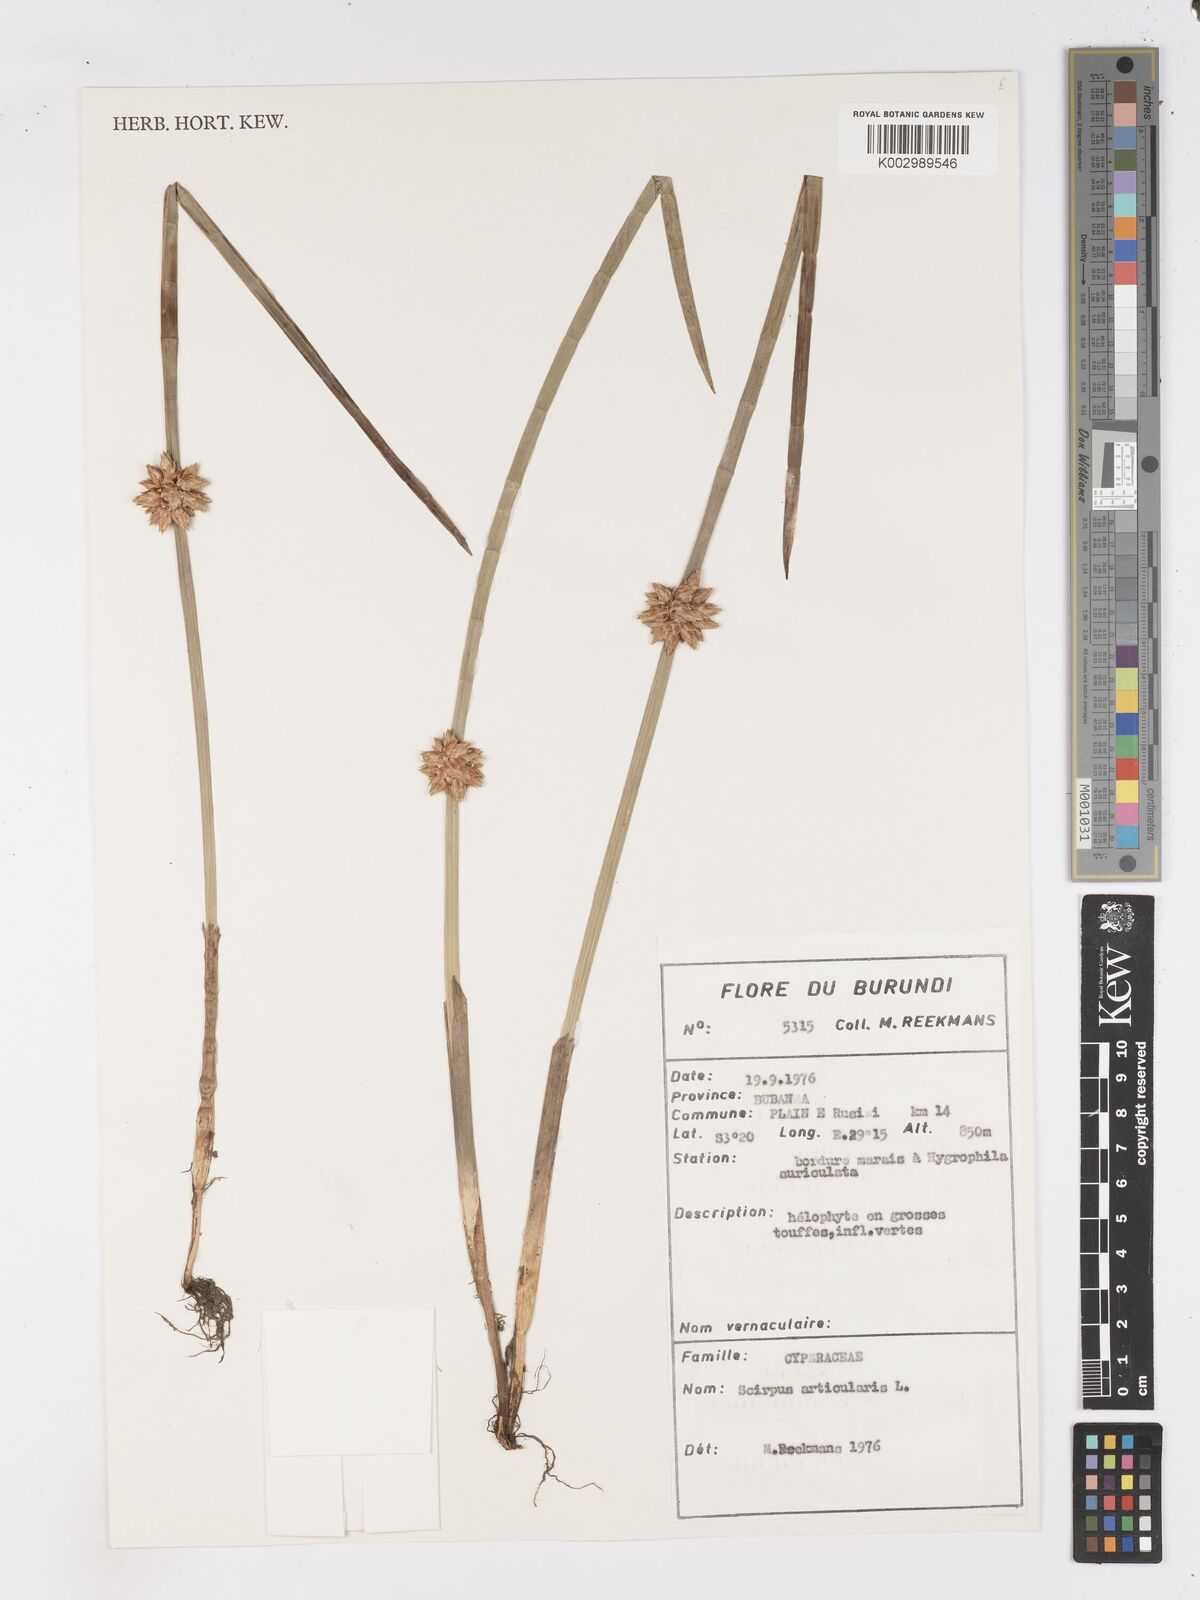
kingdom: Plantae
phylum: Tracheophyta
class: Liliopsida
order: Poales
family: Cyperaceae
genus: Schoenoplectiella
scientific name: Schoenoplectiella articulata
